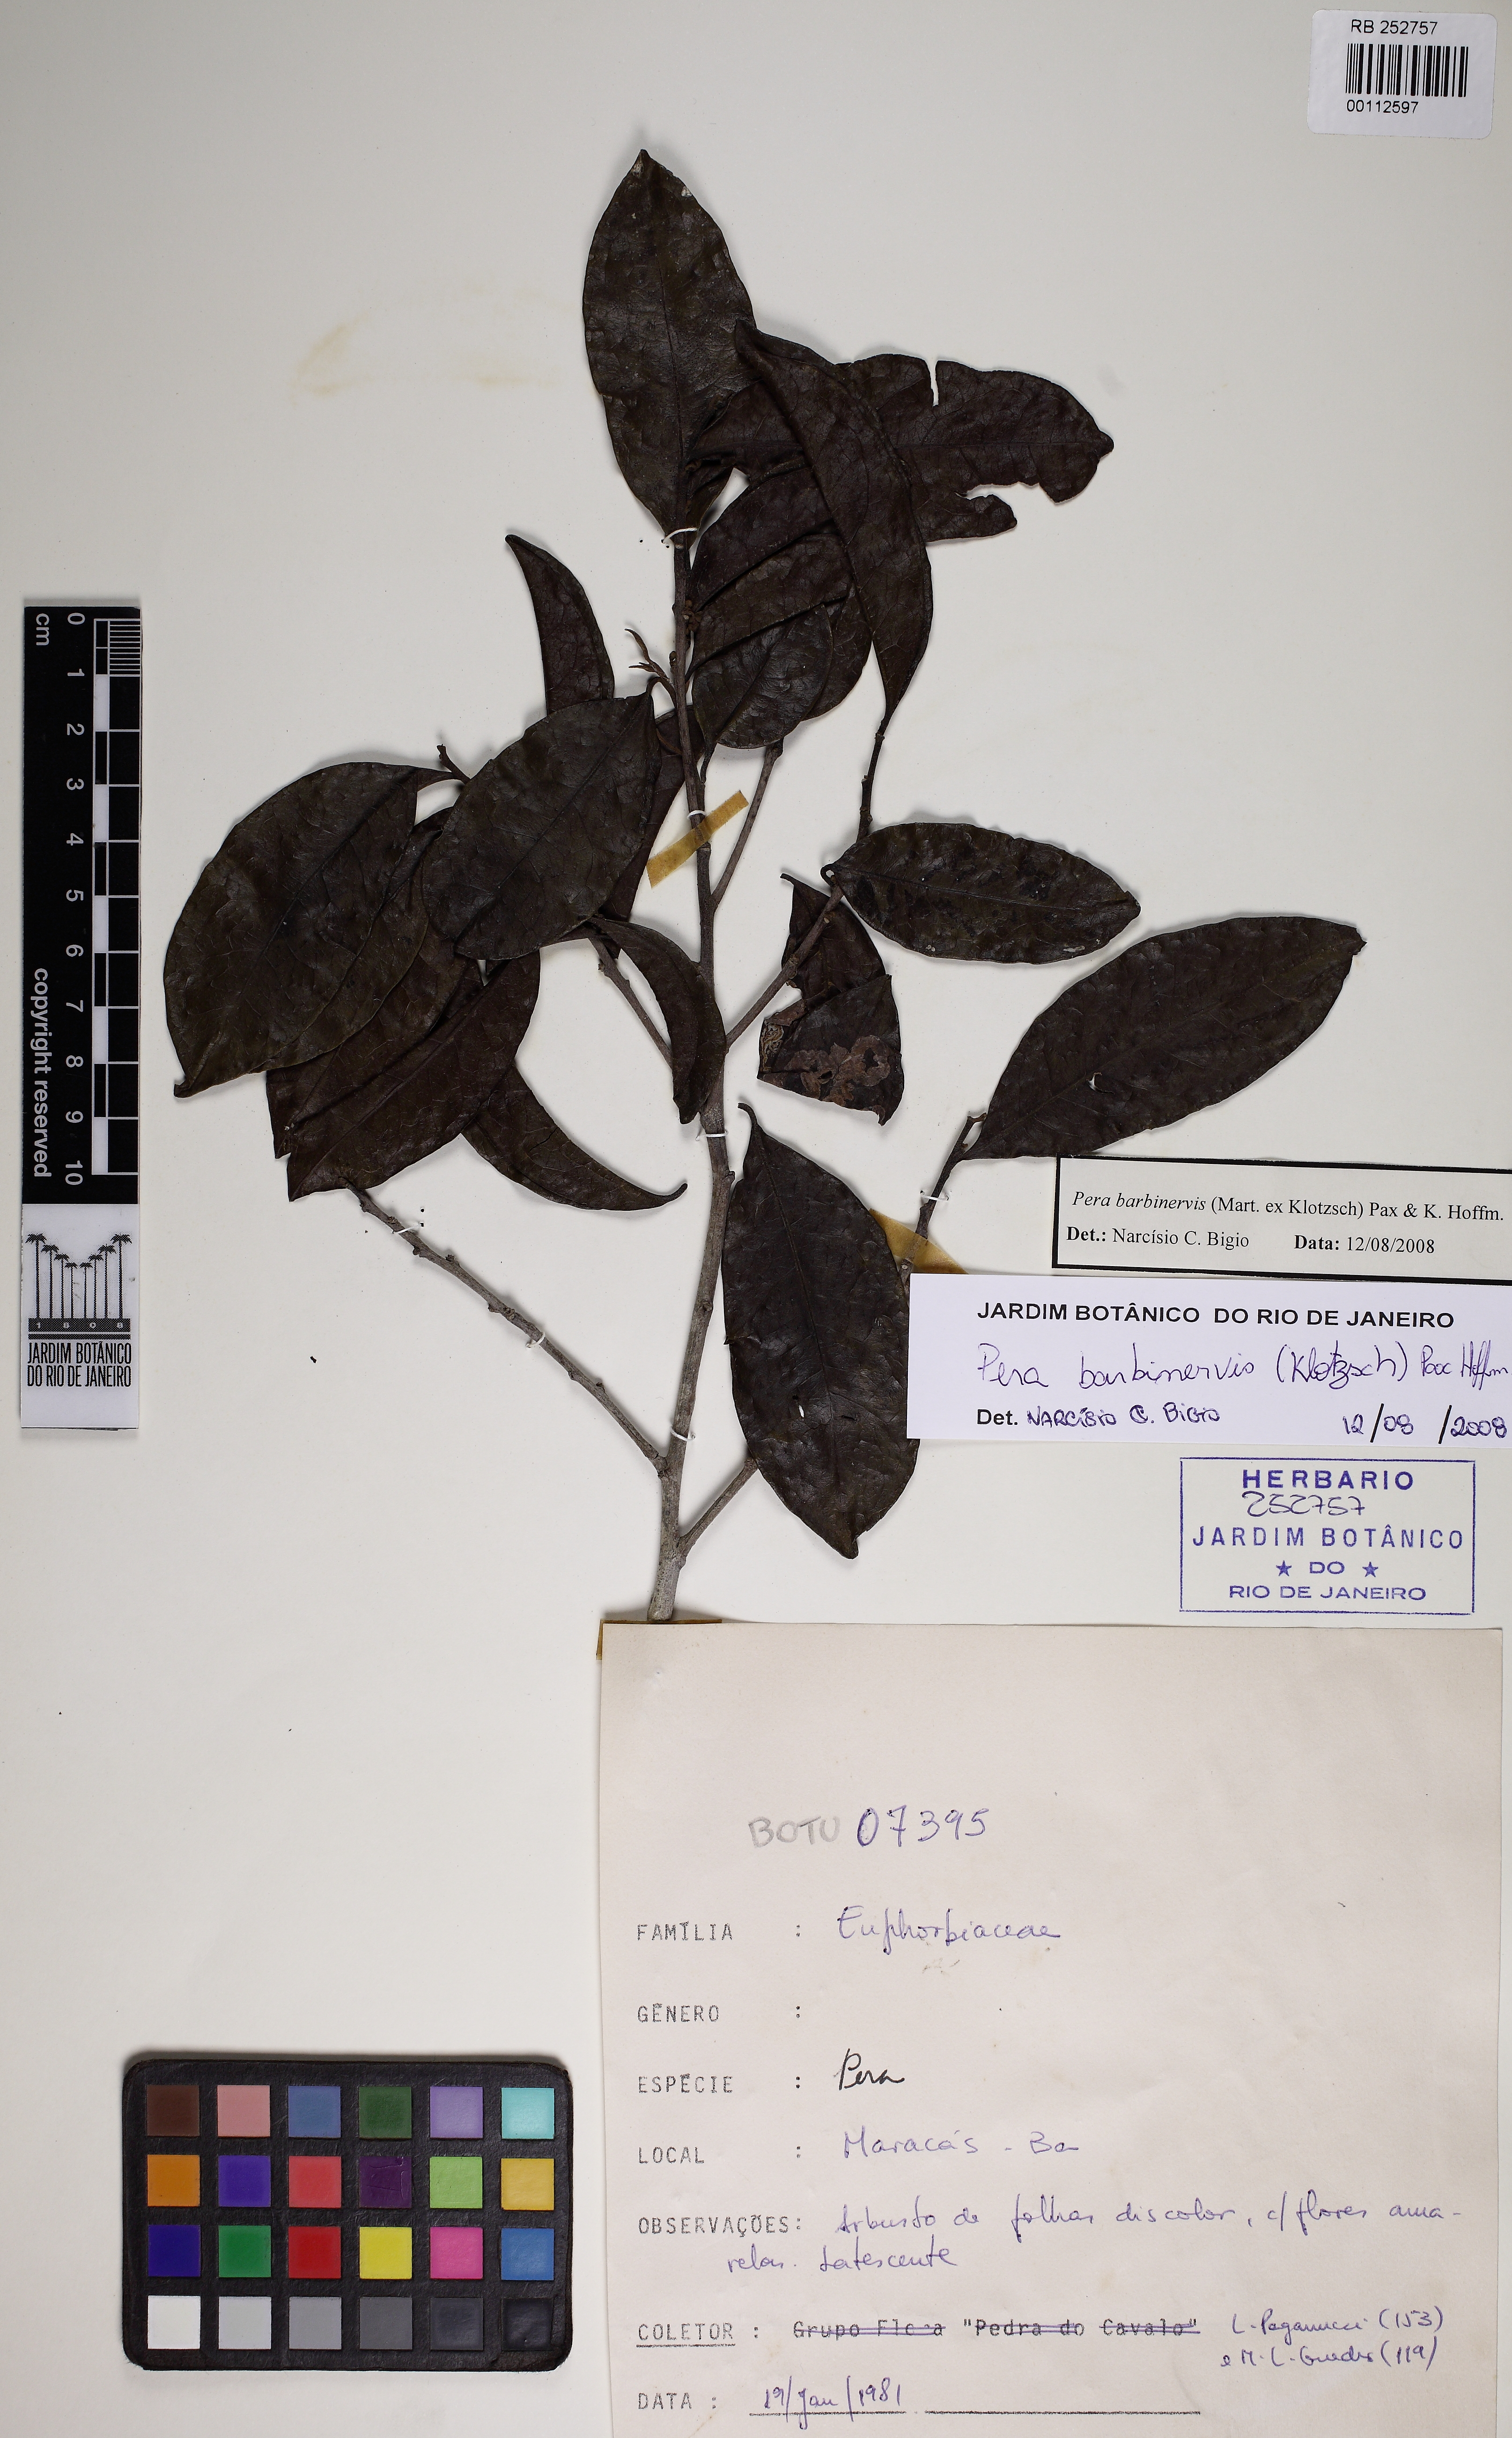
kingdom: Plantae
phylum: Tracheophyta
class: Magnoliopsida
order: Malpighiales
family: Peraceae
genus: Pera
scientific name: Pera anisotricha
